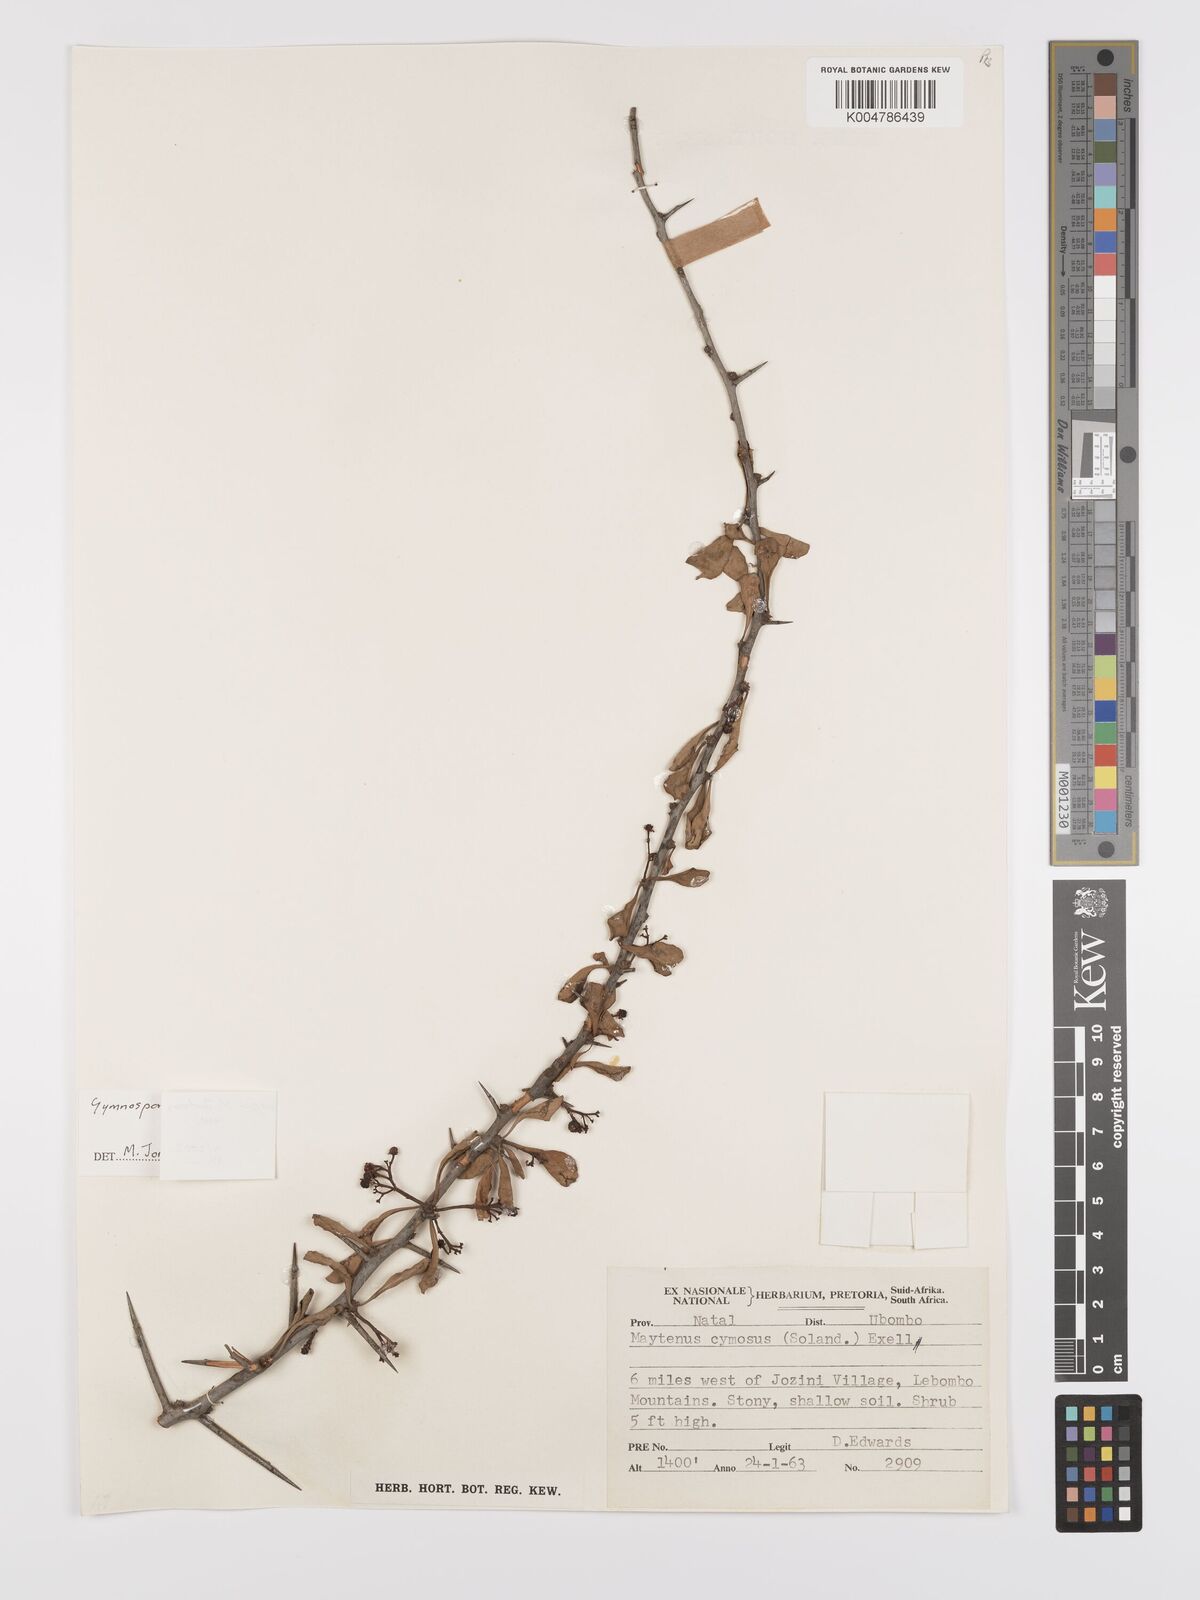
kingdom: Plantae
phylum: Tracheophyta
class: Magnoliopsida
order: Celastrales
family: Celastraceae
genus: Gymnosporia
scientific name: Gymnosporia hemipterocarpa
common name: Valley spikethorn
